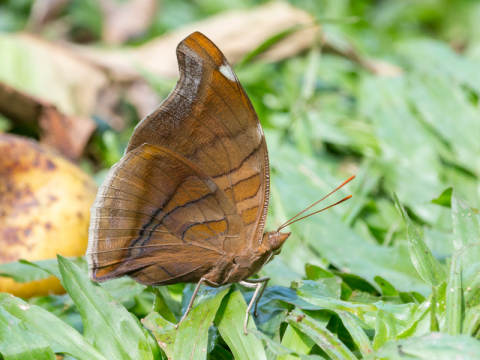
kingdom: Animalia
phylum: Arthropoda
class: Insecta
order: Lepidoptera
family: Nymphalidae
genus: Historis
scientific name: Historis odius
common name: Orion Cecropian
